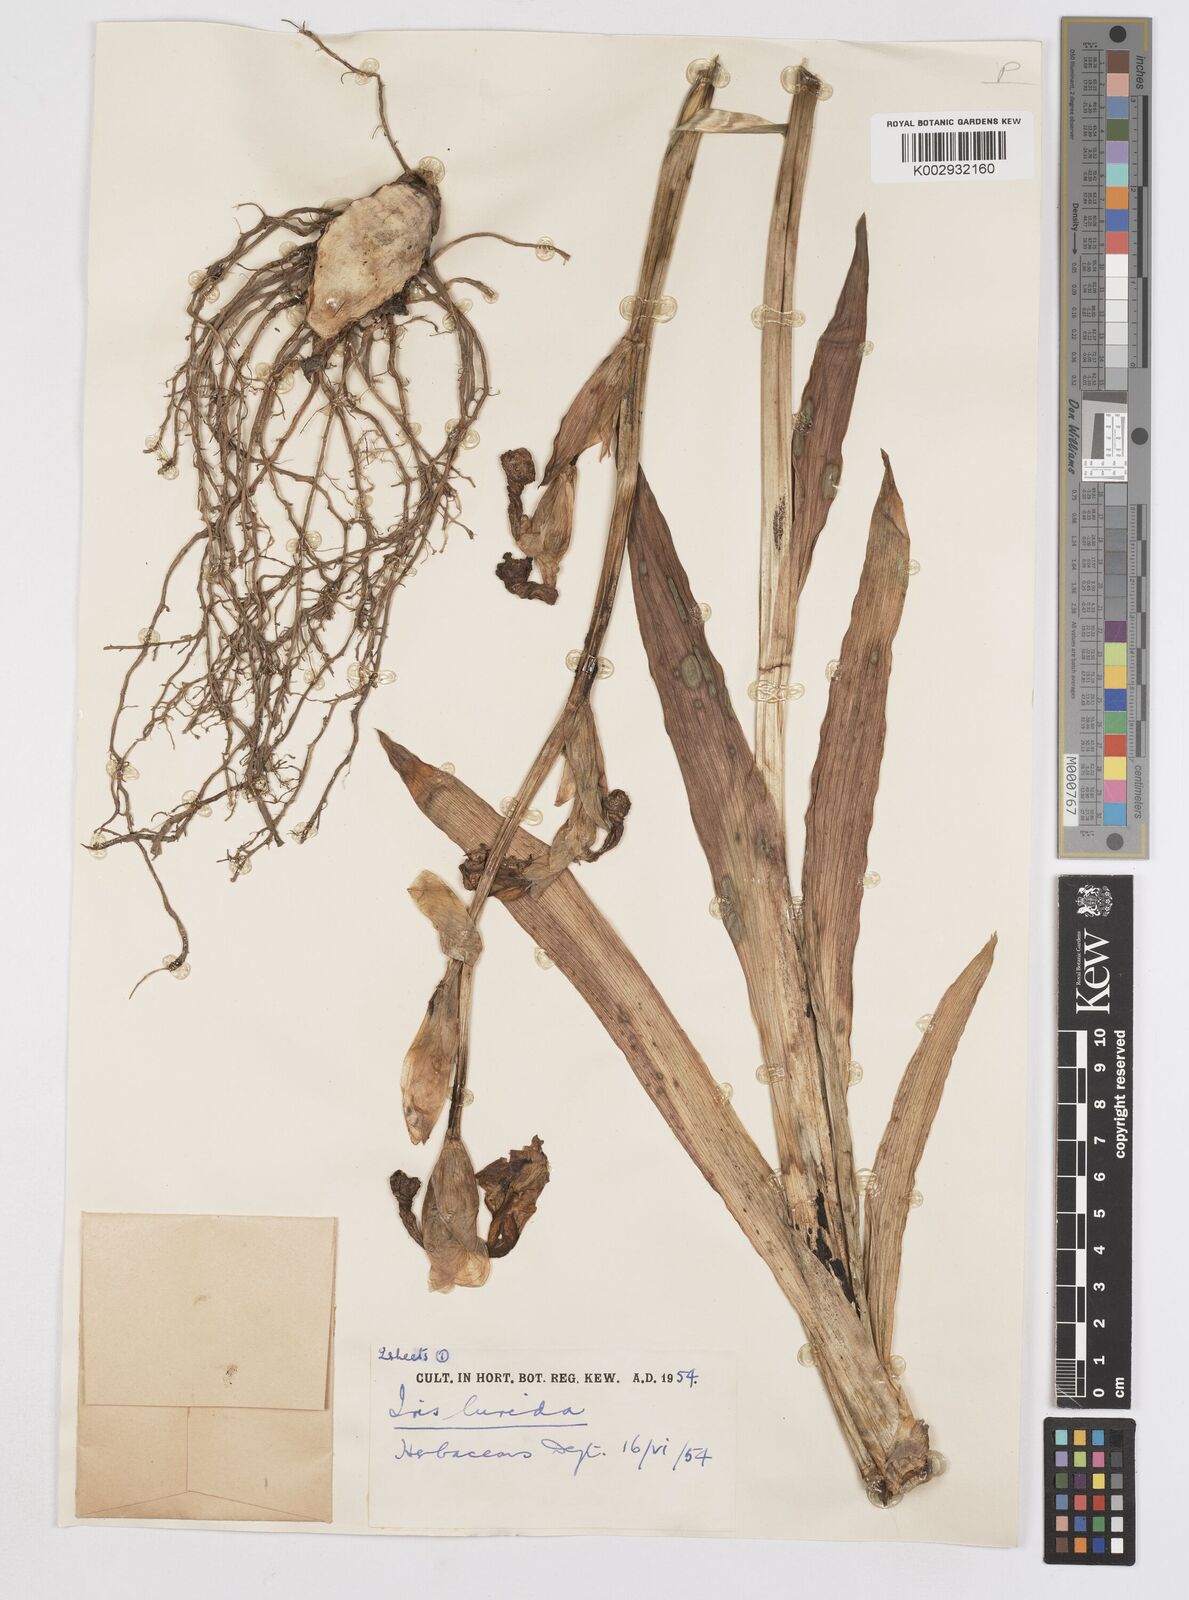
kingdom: Plantae
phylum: Tracheophyta
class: Liliopsida
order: Asparagales
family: Iridaceae
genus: Iris
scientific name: Iris sari
